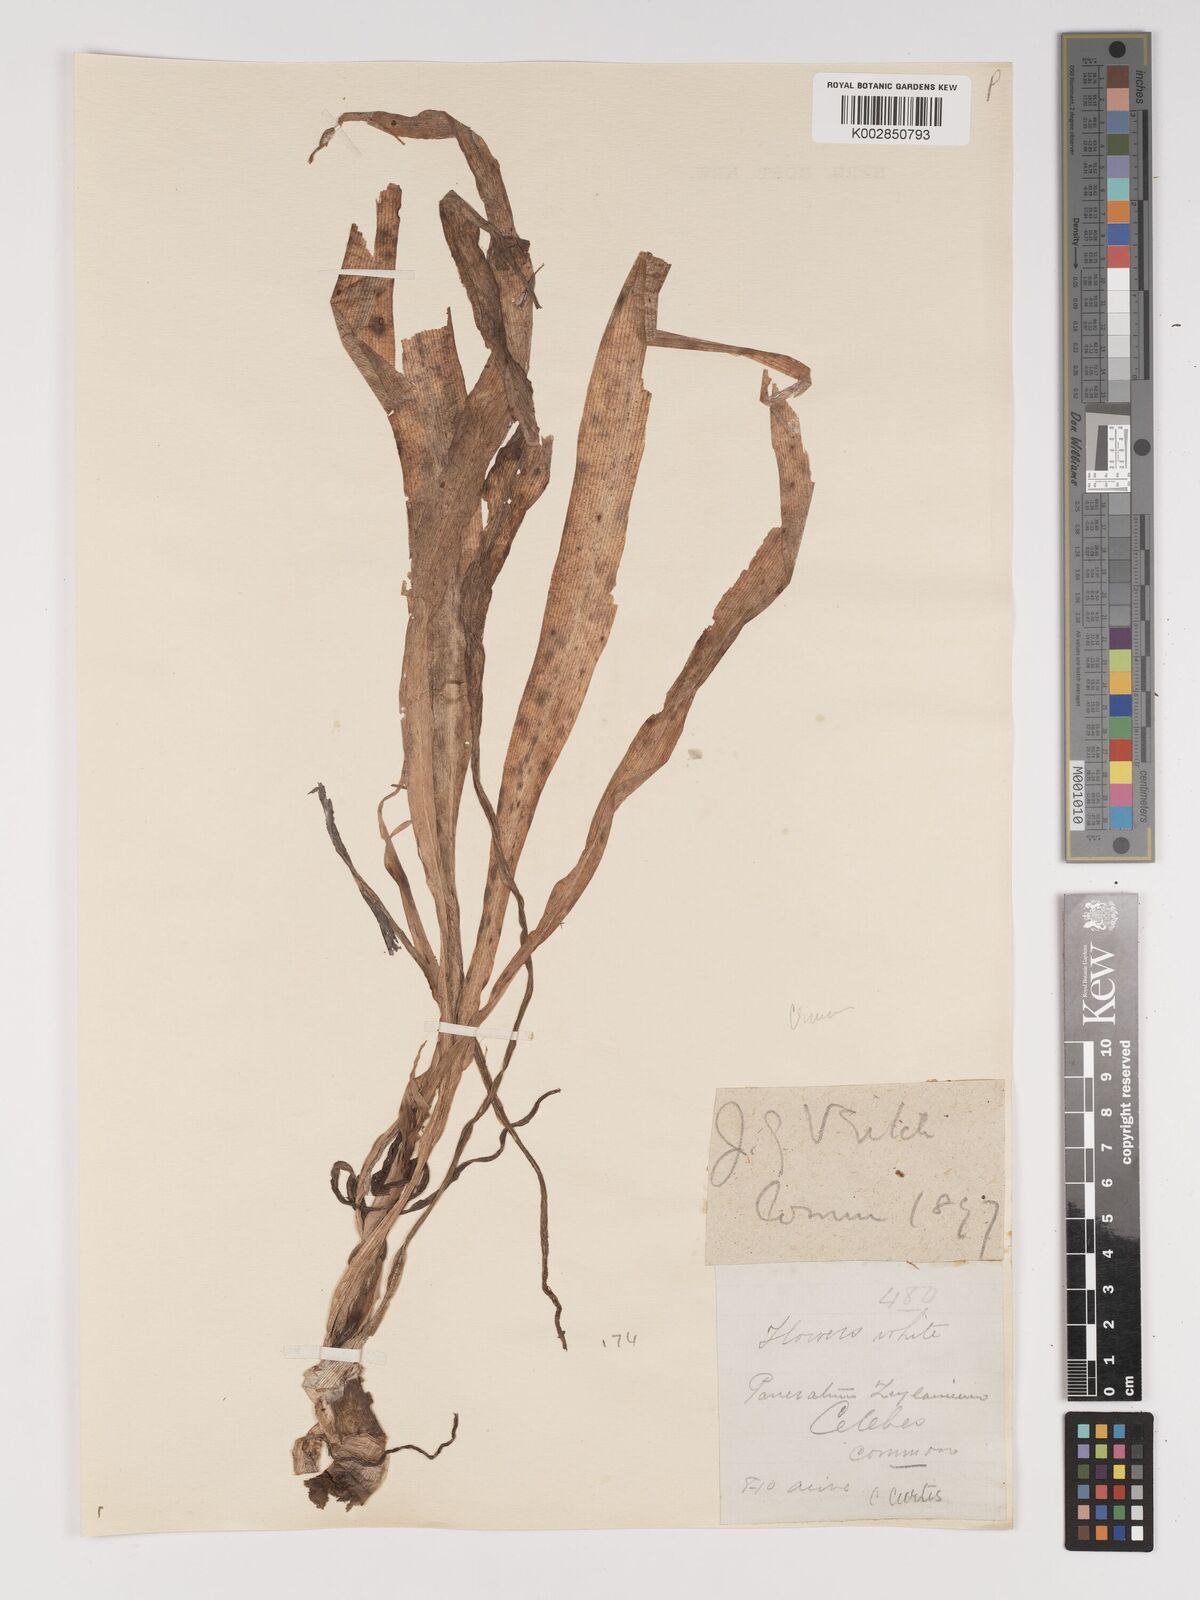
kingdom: Plantae
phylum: Tracheophyta
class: Liliopsida
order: Asparagales
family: Amaryllidaceae
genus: Crinum
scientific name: Crinum
